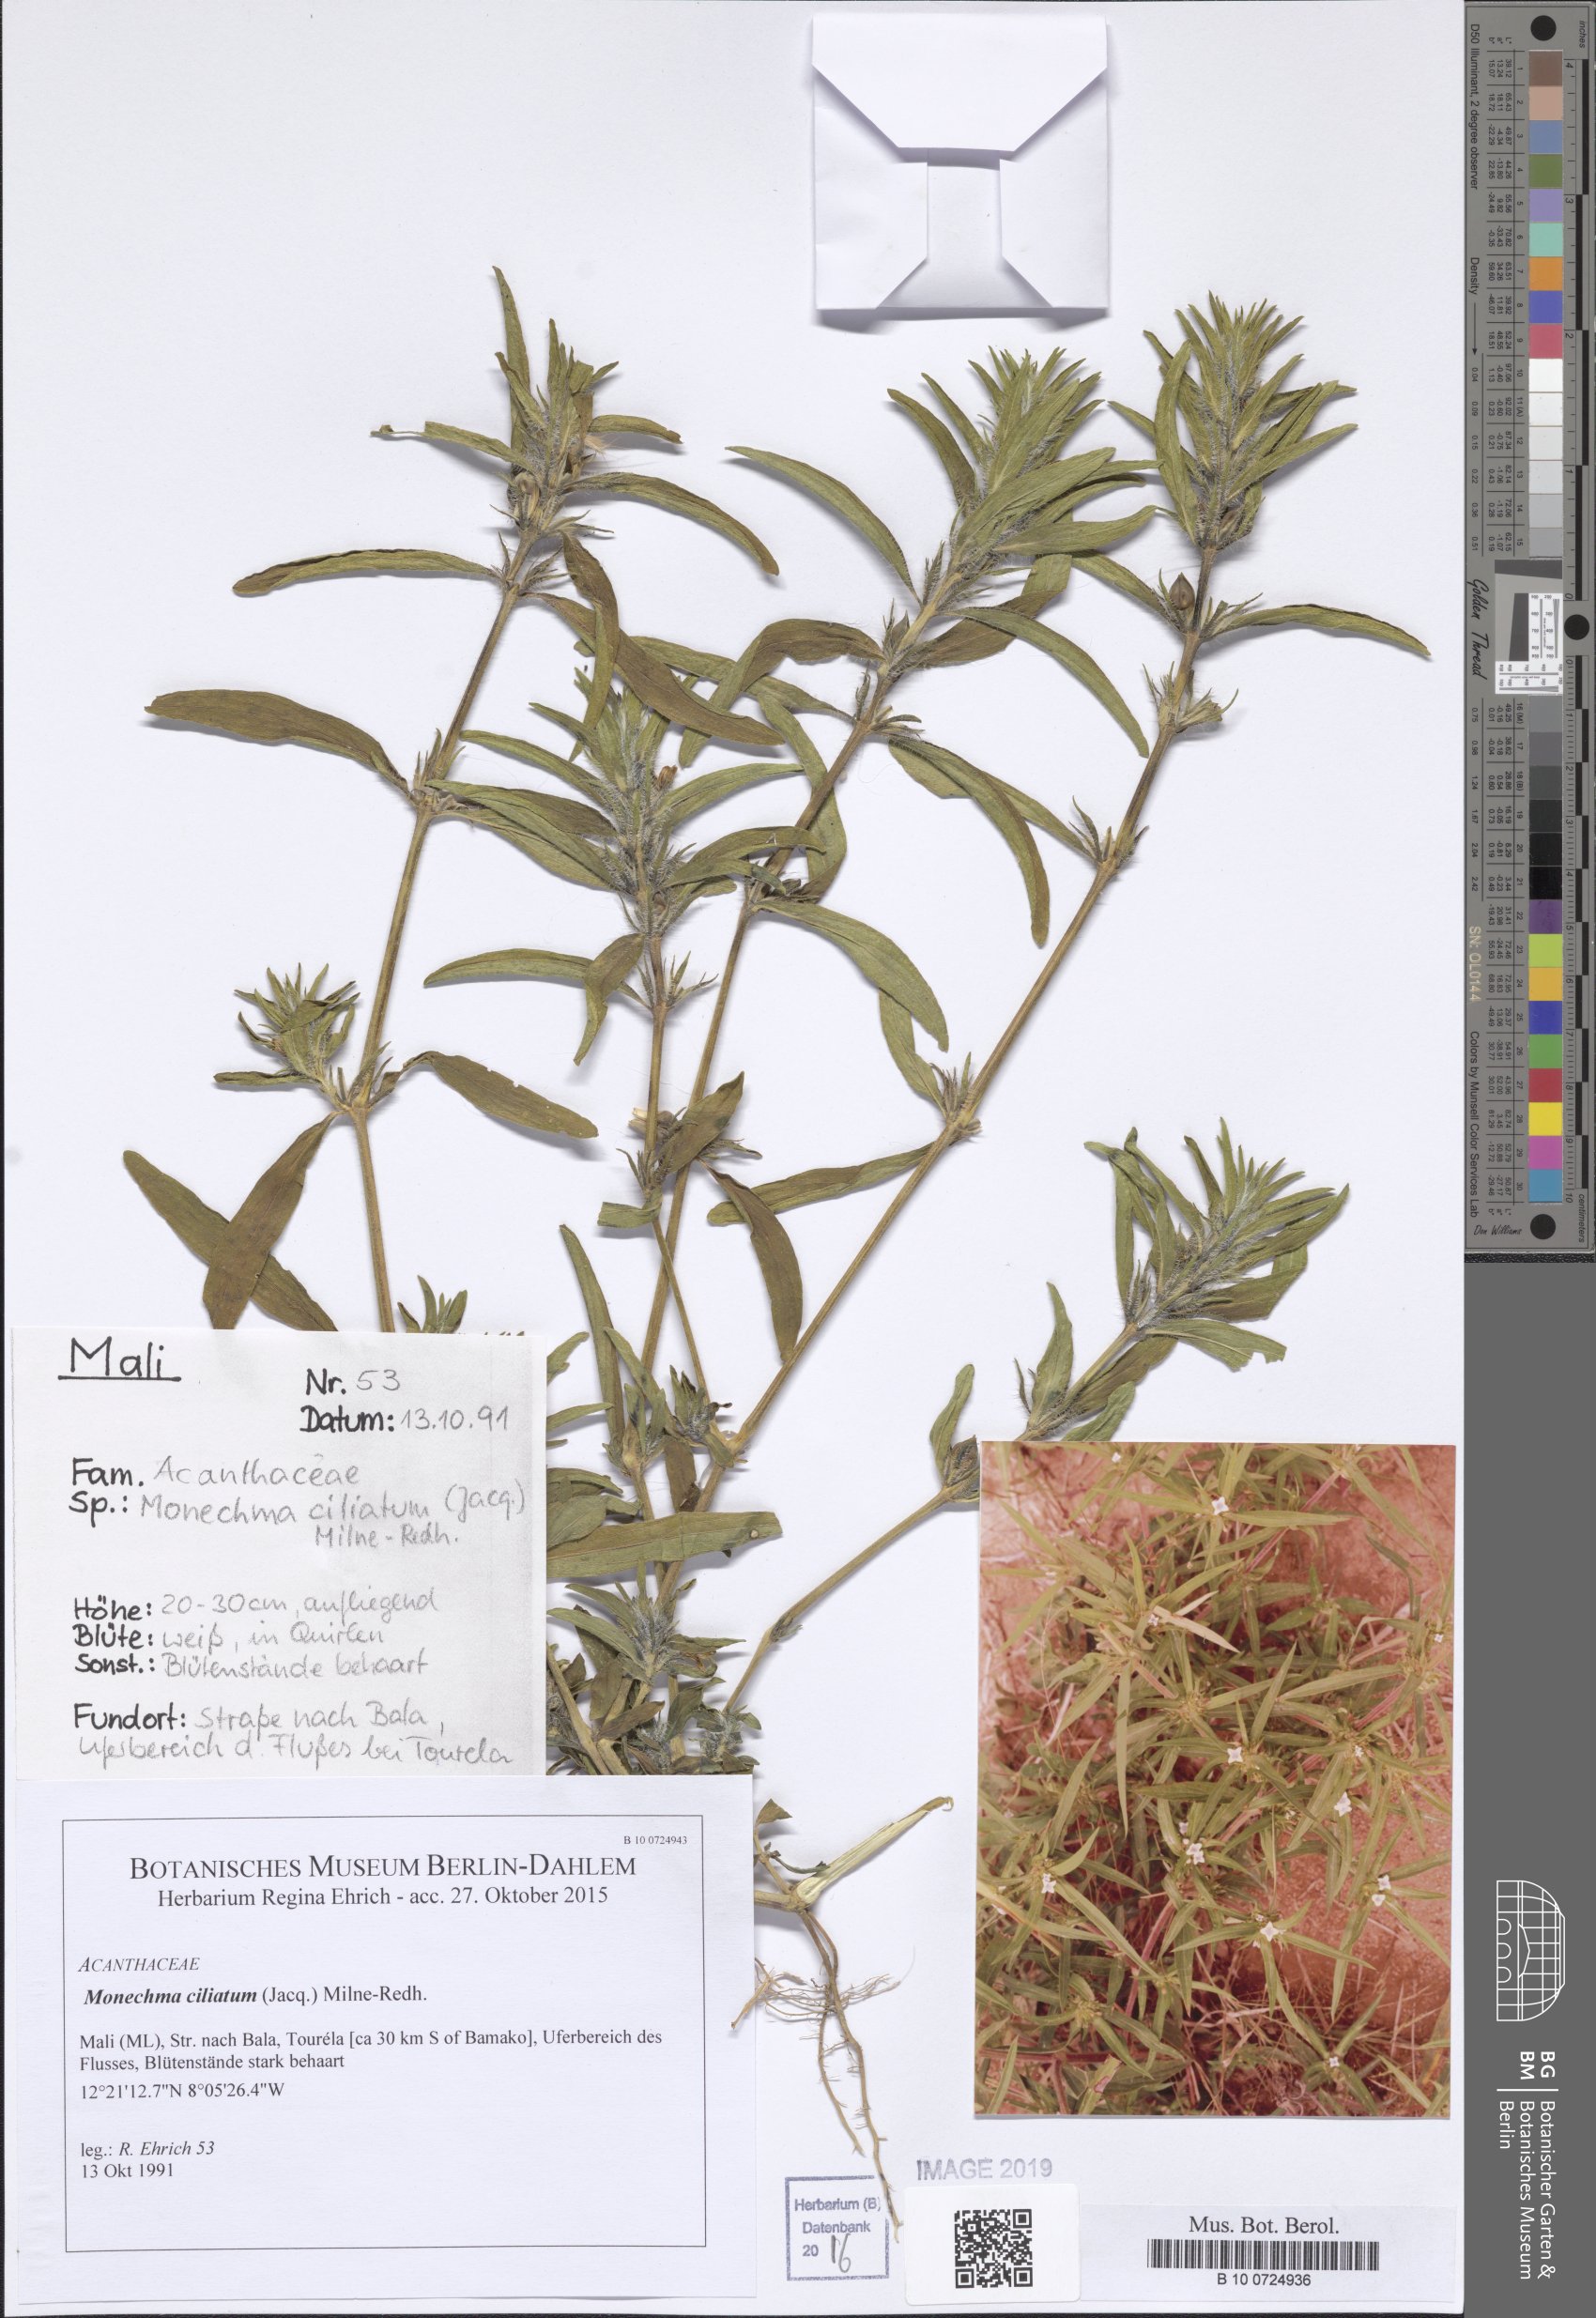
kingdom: Plantae
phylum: Tracheophyta
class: Magnoliopsida
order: Gentianales
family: Rubiaceae
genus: Mitracarpus
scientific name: Mitracarpus hirtus
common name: Tropical girdlepod
